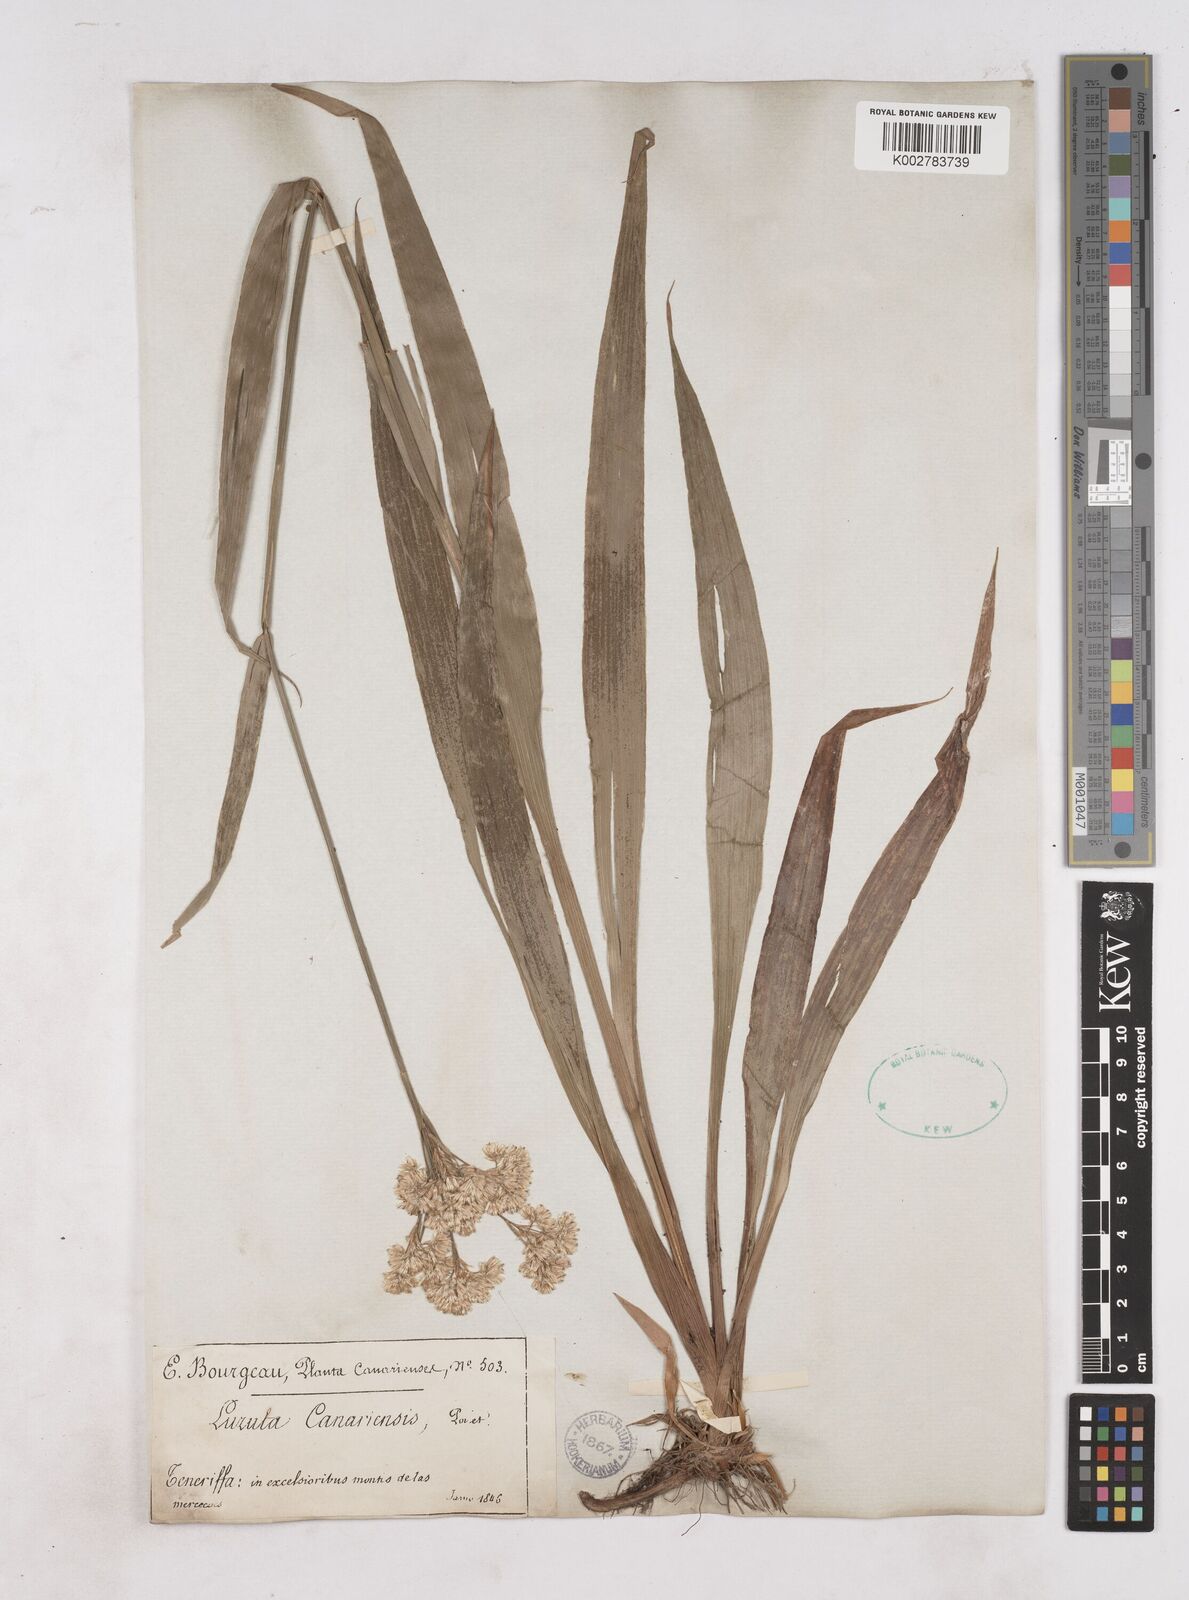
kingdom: Plantae
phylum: Tracheophyta
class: Liliopsida
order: Poales
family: Juncaceae
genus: Luzula
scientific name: Luzula canariensis
